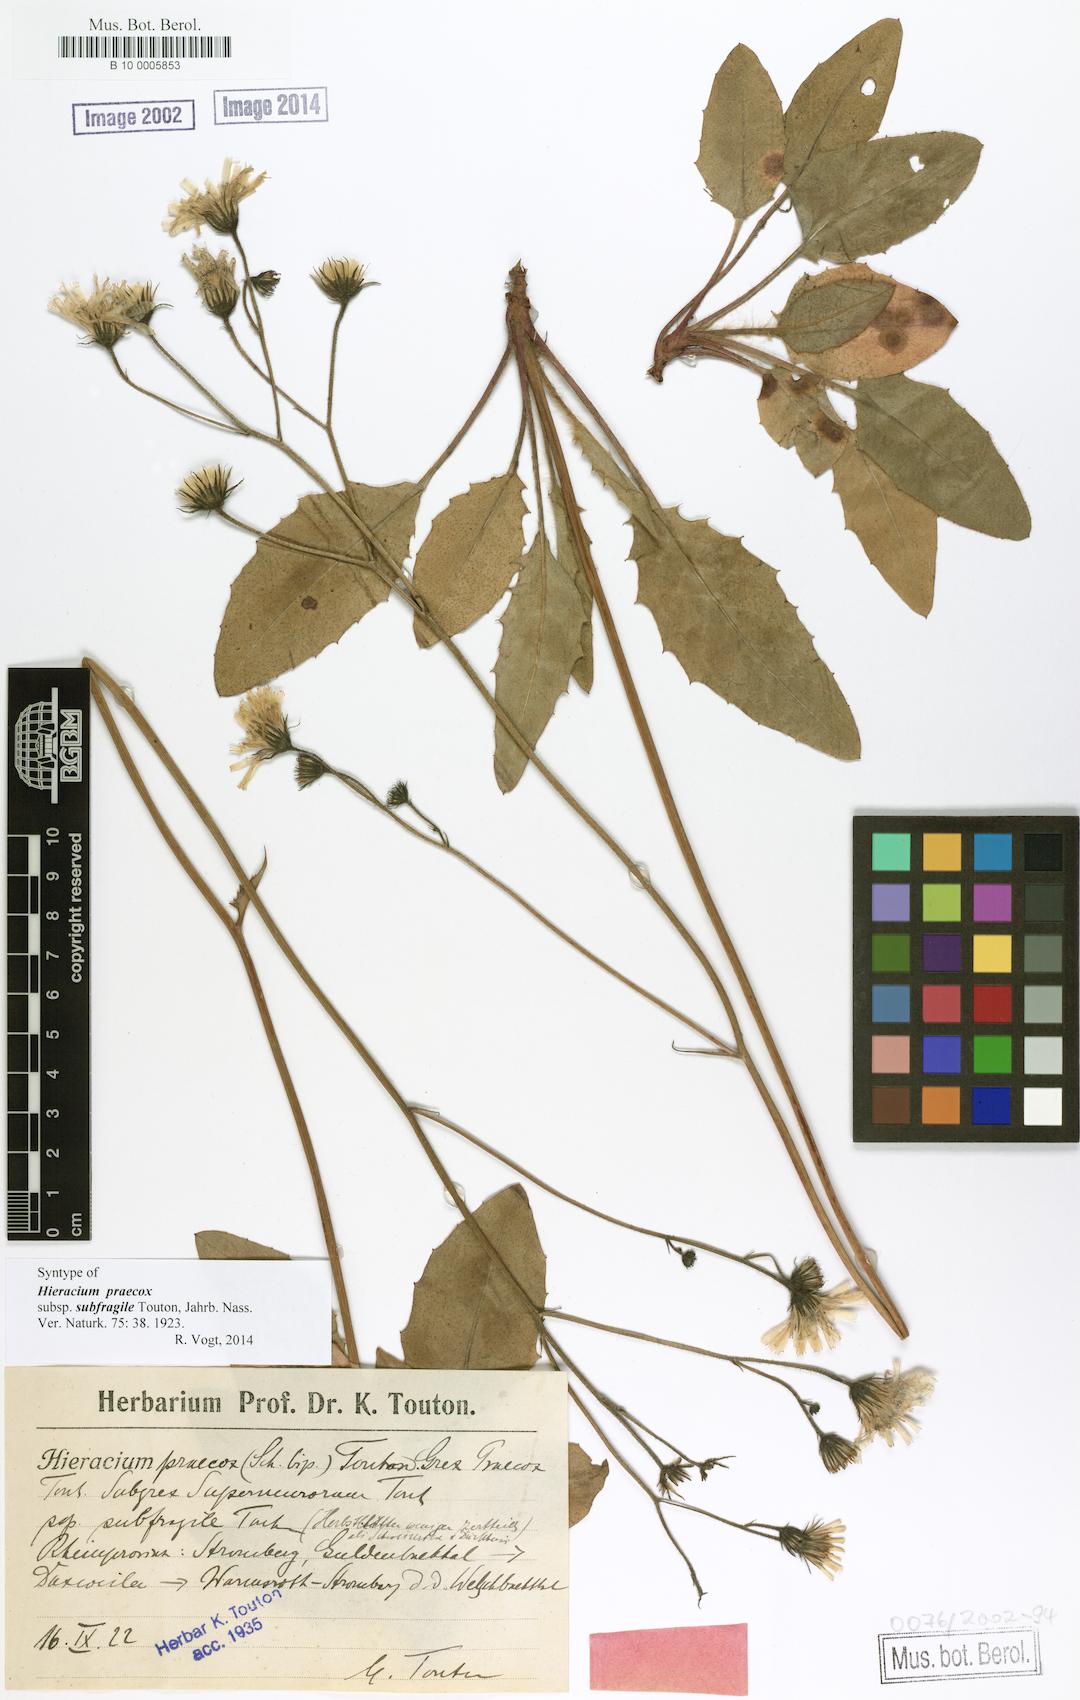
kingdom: Plantae
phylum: Tracheophyta
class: Magnoliopsida
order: Asterales
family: Asteraceae
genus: Hieracium
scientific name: Hieracium glaucinum
